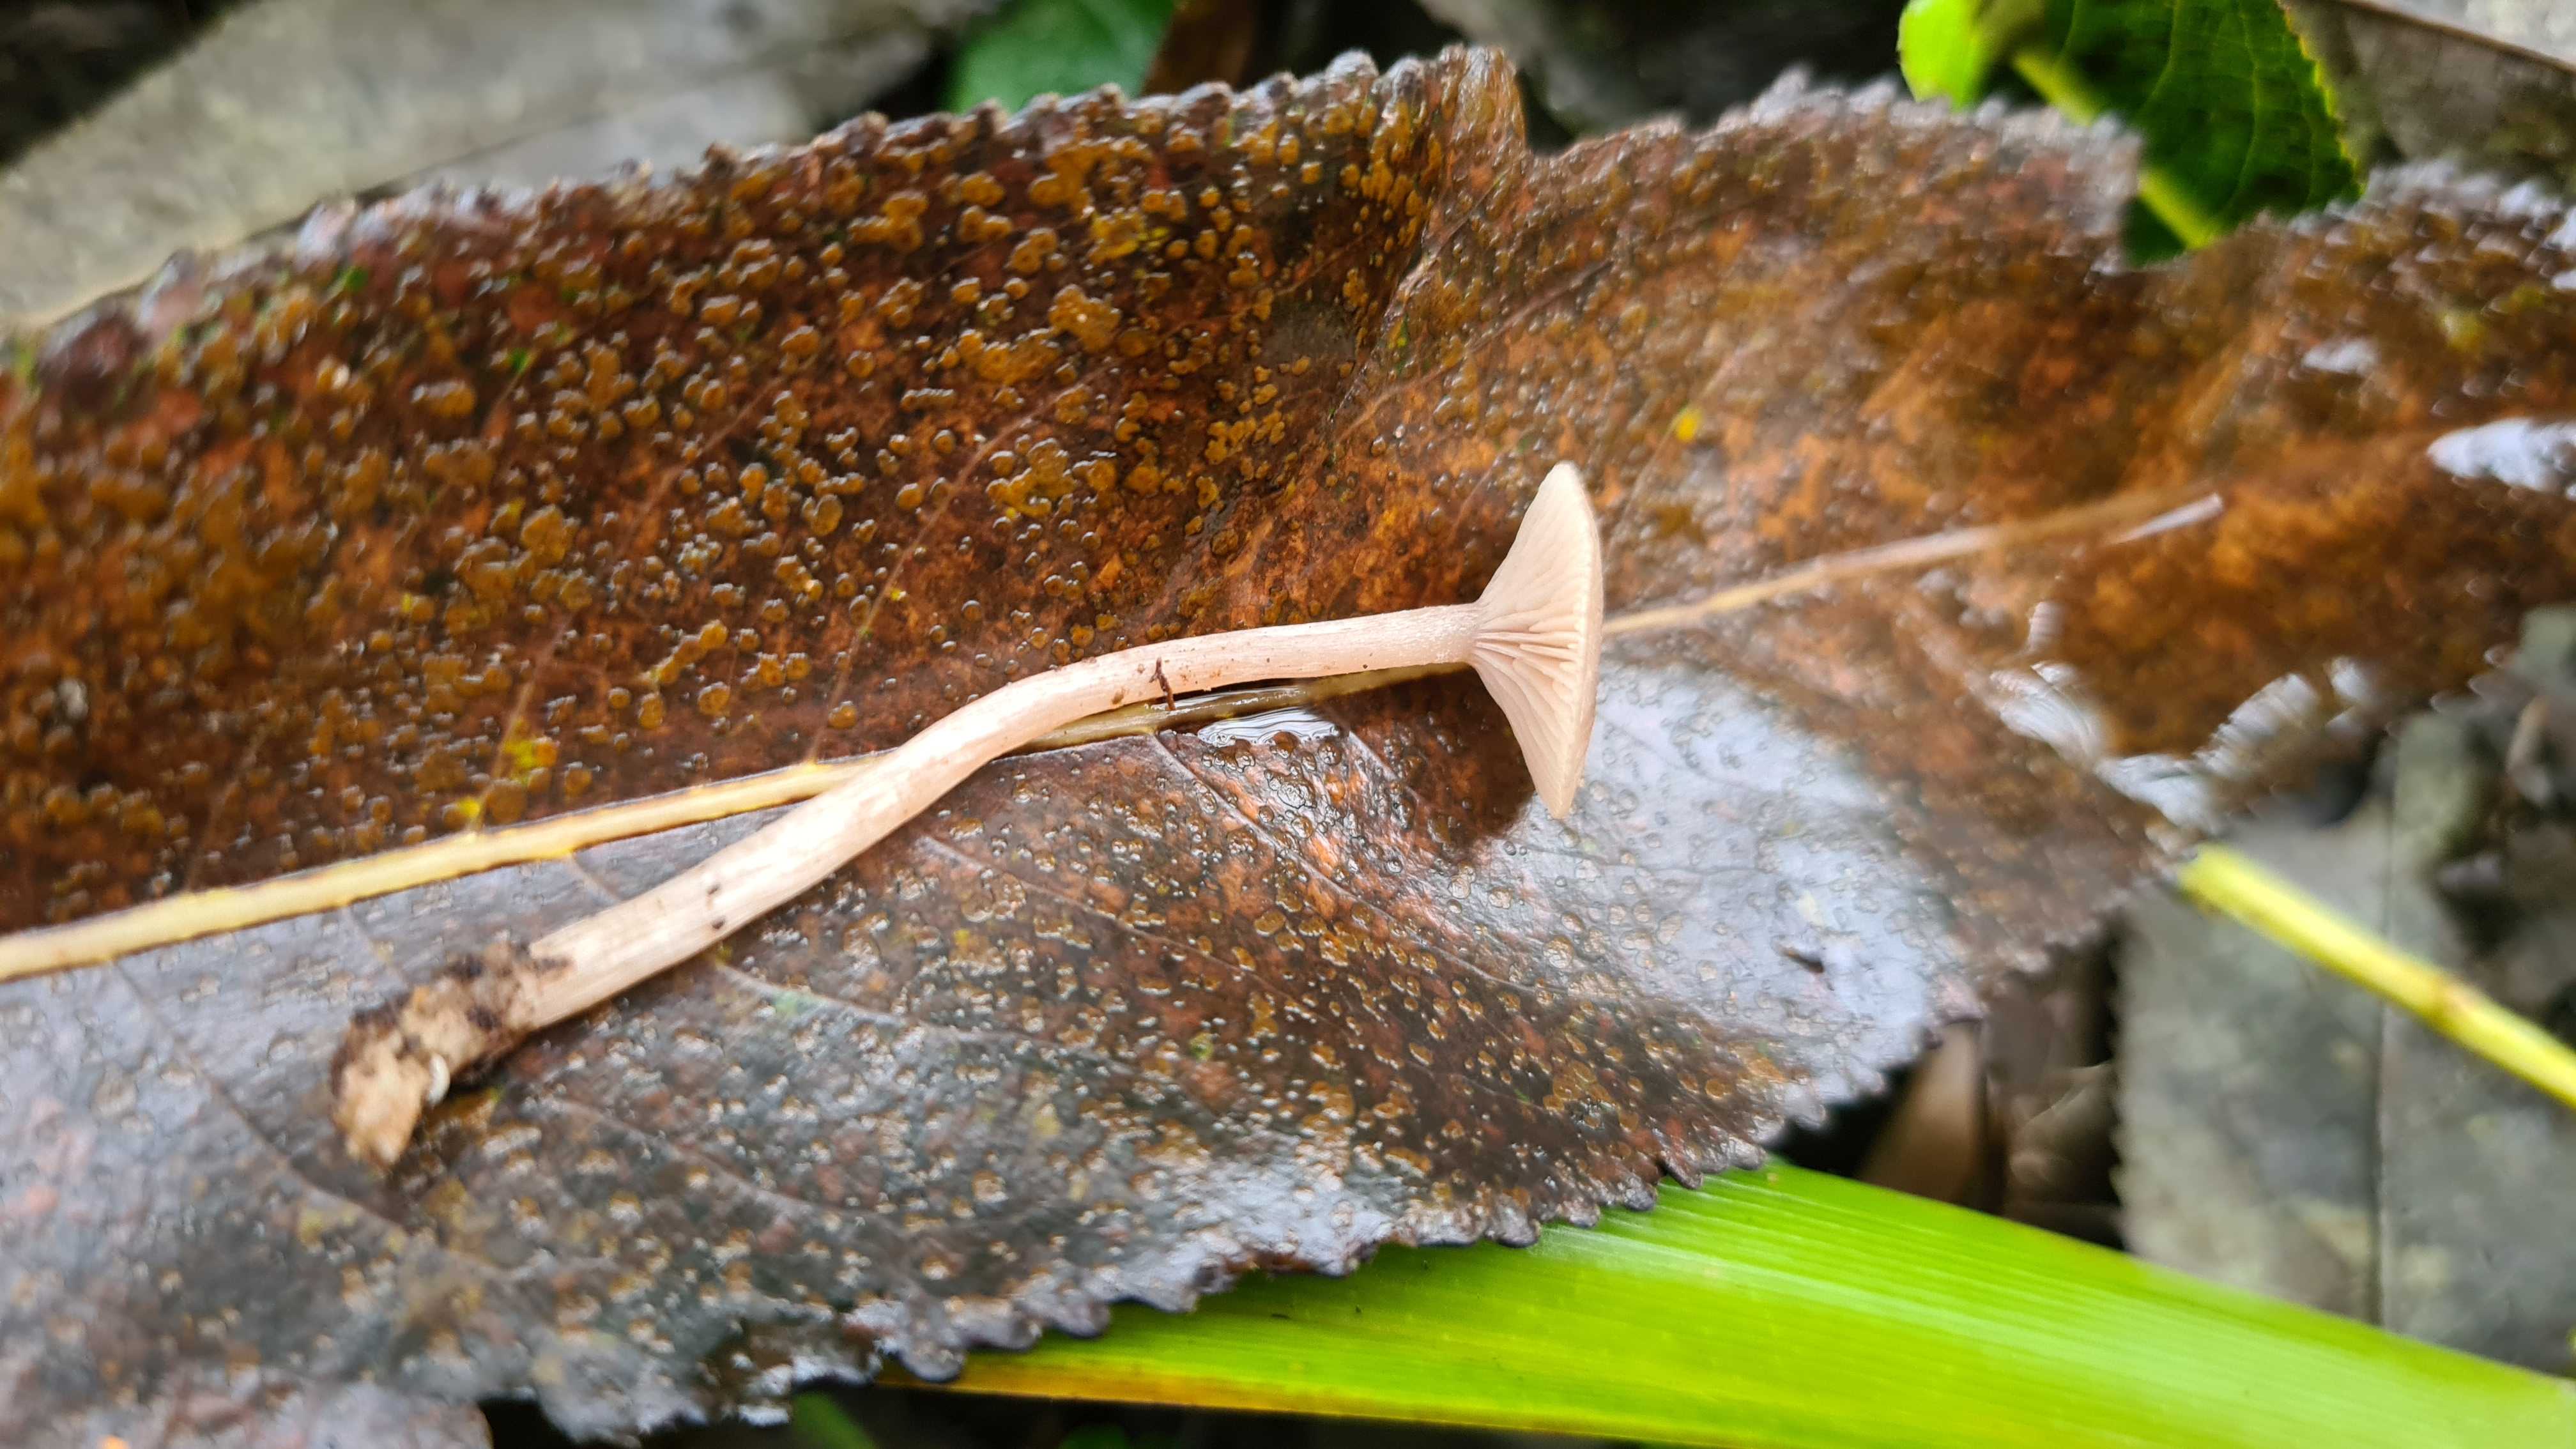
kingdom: Fungi
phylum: Basidiomycota
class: Agaricomycetes
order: Agaricales
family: Tricholomataceae
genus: Clitocybe
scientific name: Clitocybe
